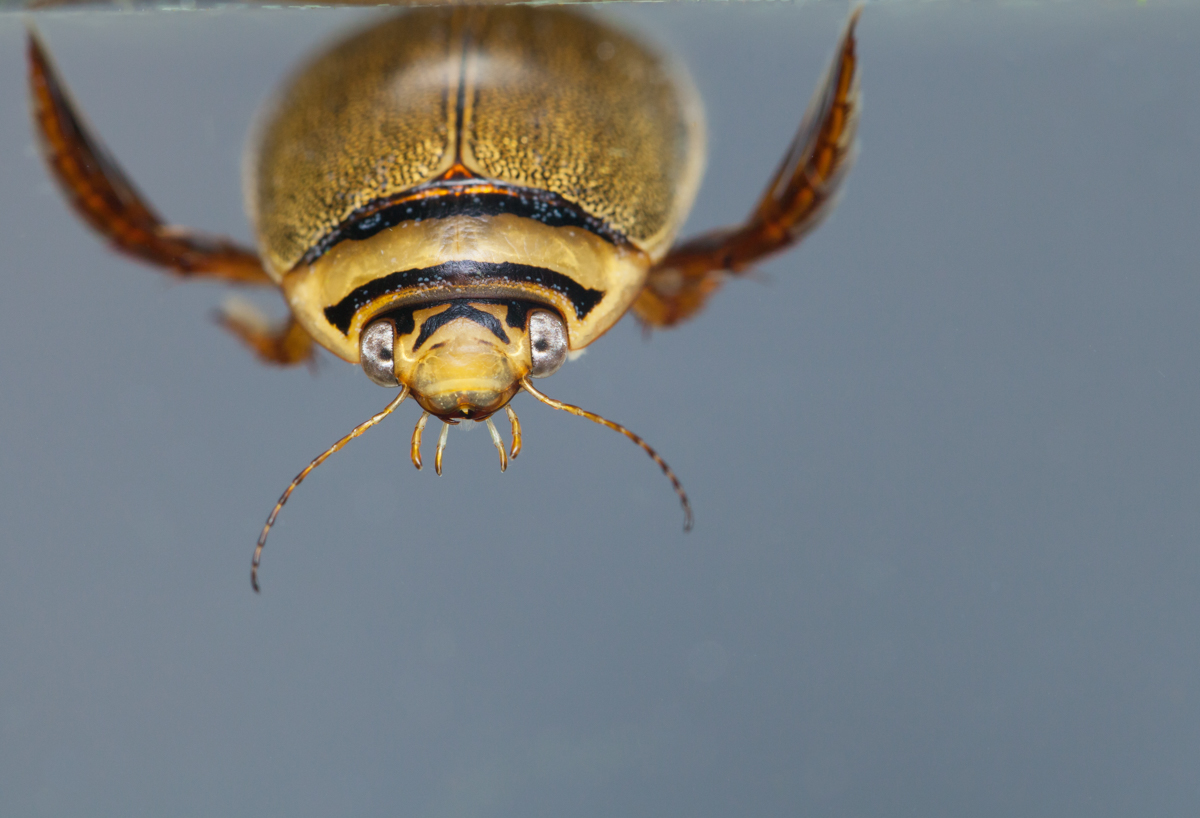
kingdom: Animalia
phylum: Arthropoda
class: Insecta
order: Coleoptera
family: Dytiscidae
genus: Graphoderus
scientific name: Graphoderus zonatus
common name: Spangled diving beetle
